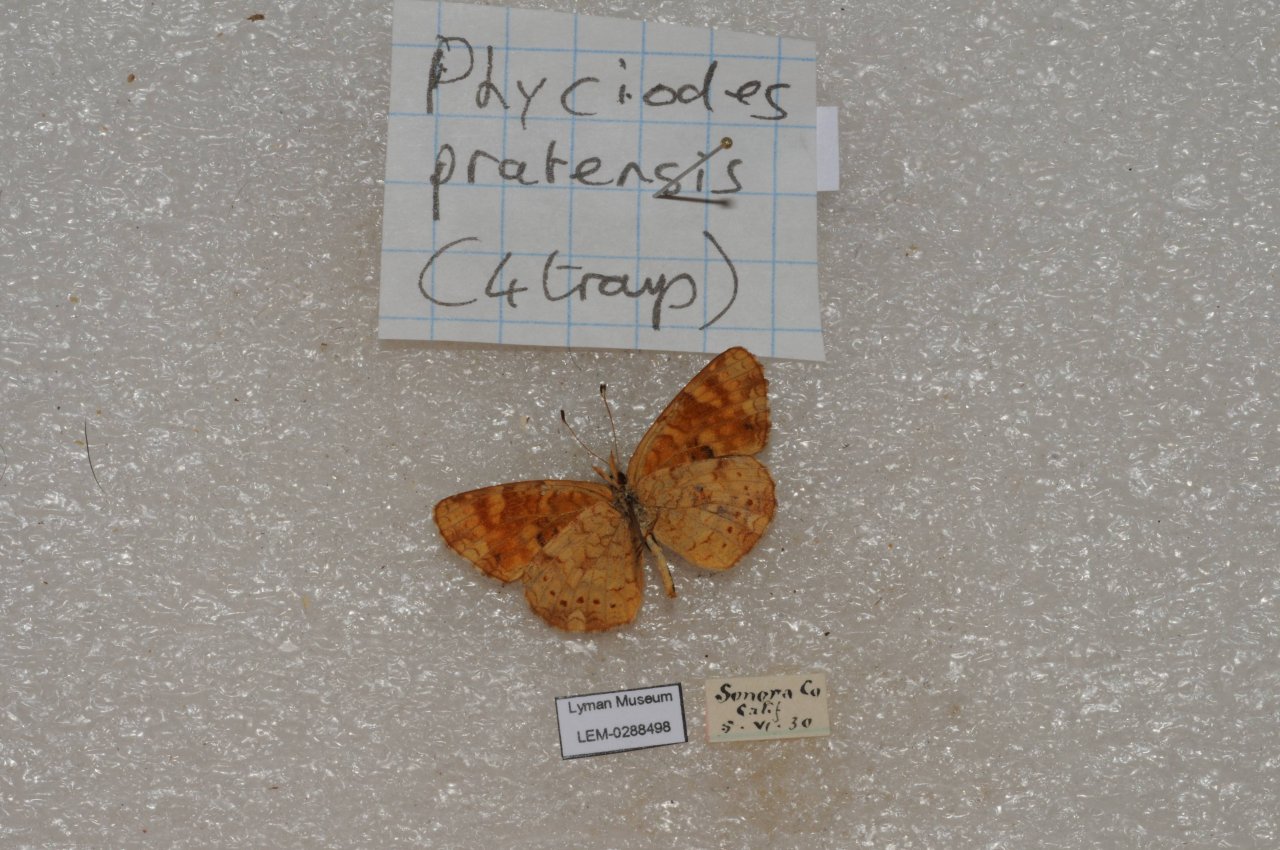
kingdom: Animalia
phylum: Arthropoda
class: Insecta
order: Lepidoptera
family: Nymphalidae
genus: Phyciodes
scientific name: Phyciodes tharos
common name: Field Crescent
